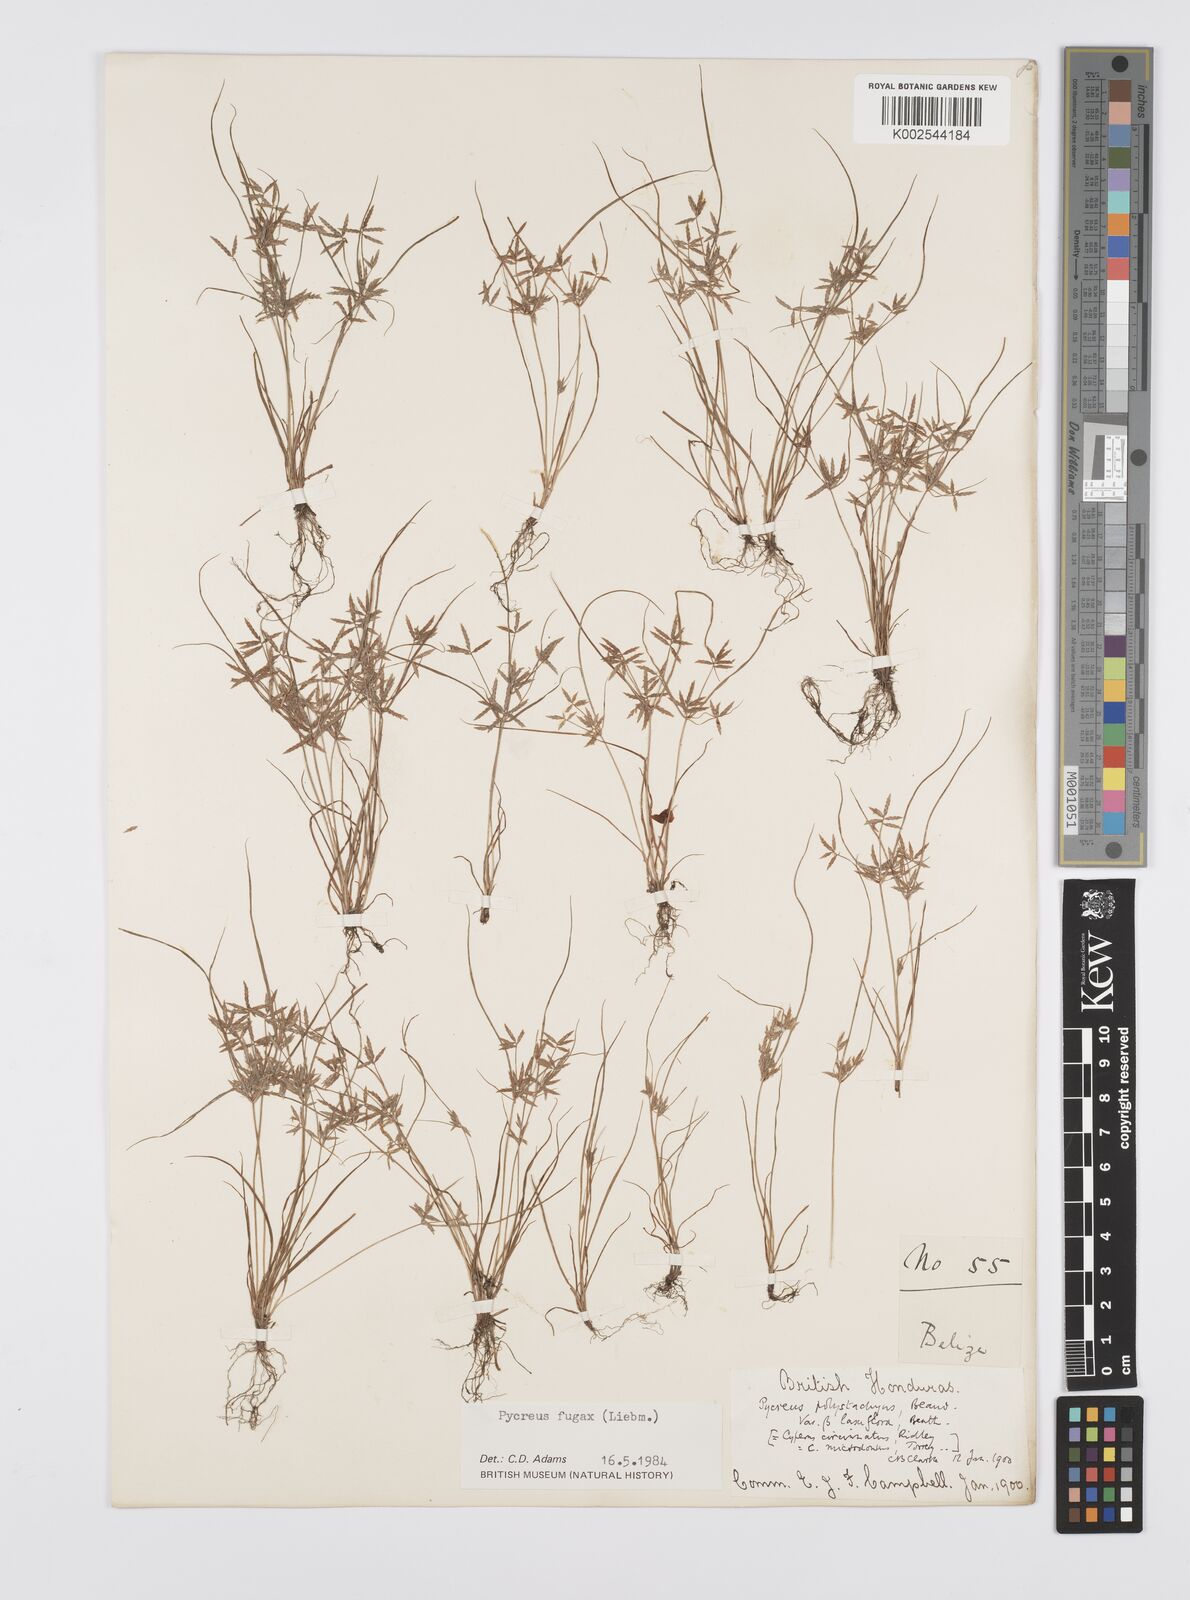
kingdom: Plantae
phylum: Tracheophyta
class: Liliopsida
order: Poales
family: Cyperaceae
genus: Cyperus
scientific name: Cyperus polystachyos
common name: Bunchy flat sedge
